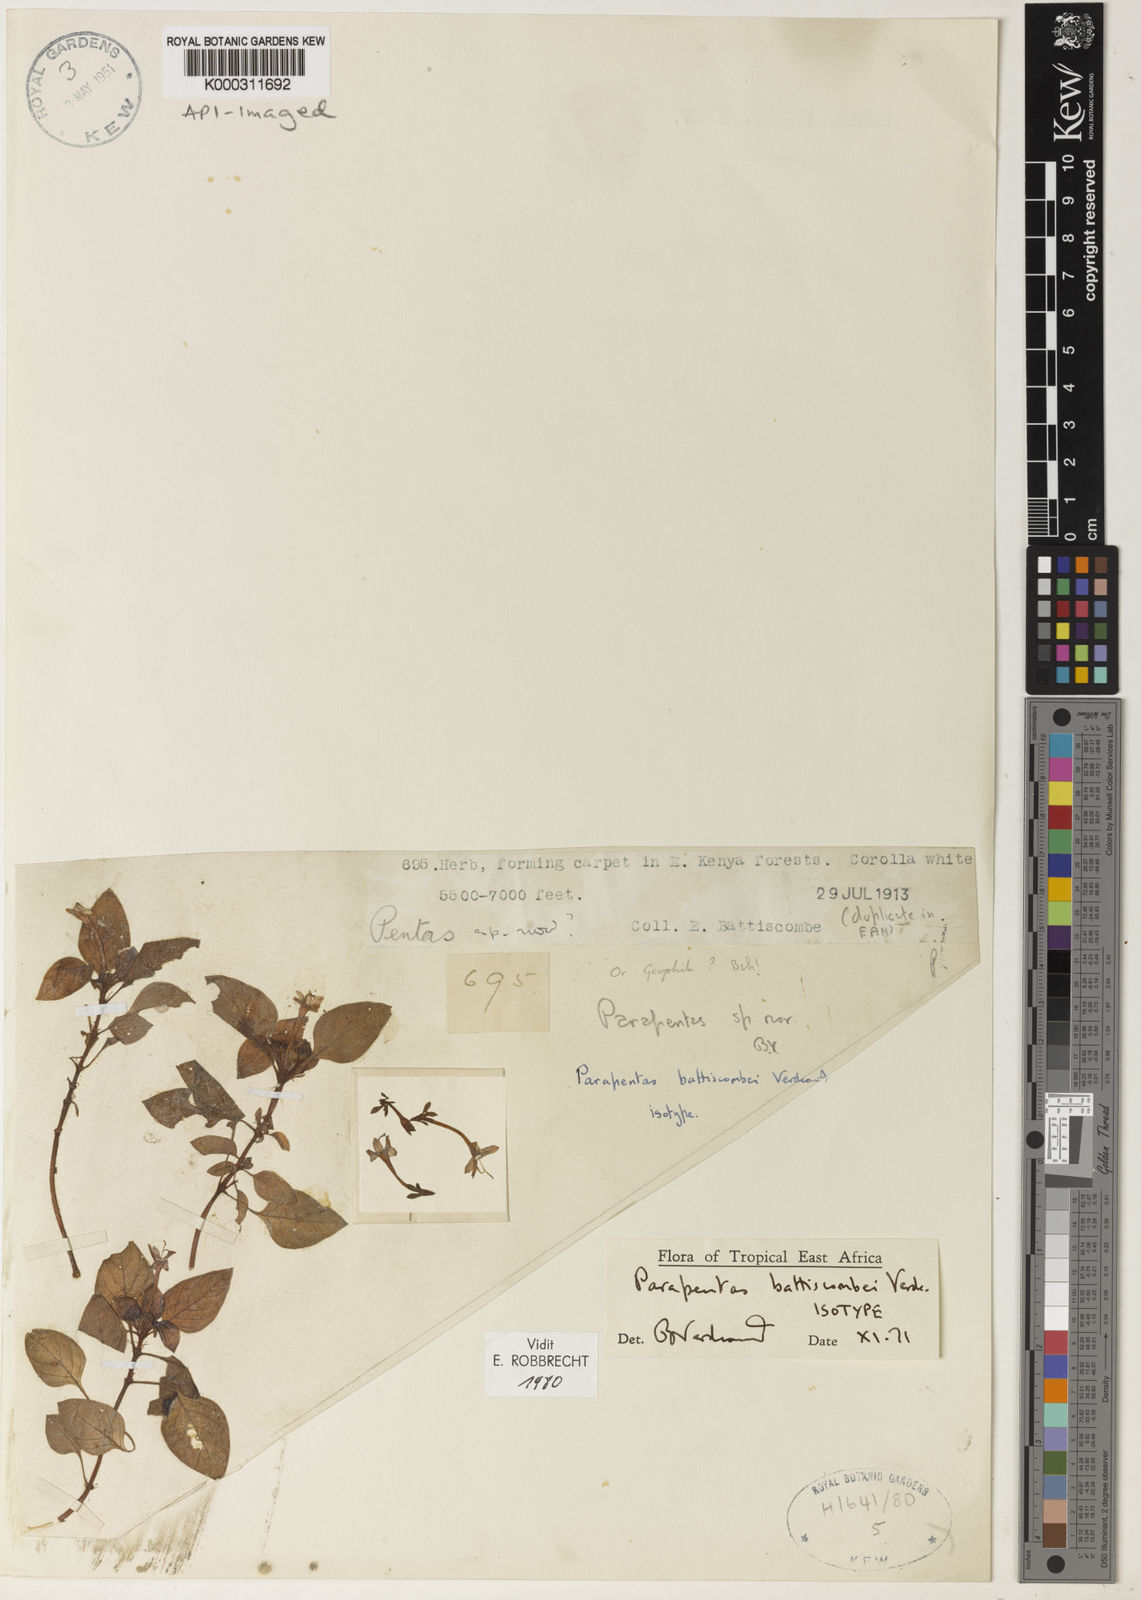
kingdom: Plantae
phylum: Tracheophyta
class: Magnoliopsida
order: Gentianales
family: Rubiaceae
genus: Parapentas
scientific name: Parapentas battiscombei
